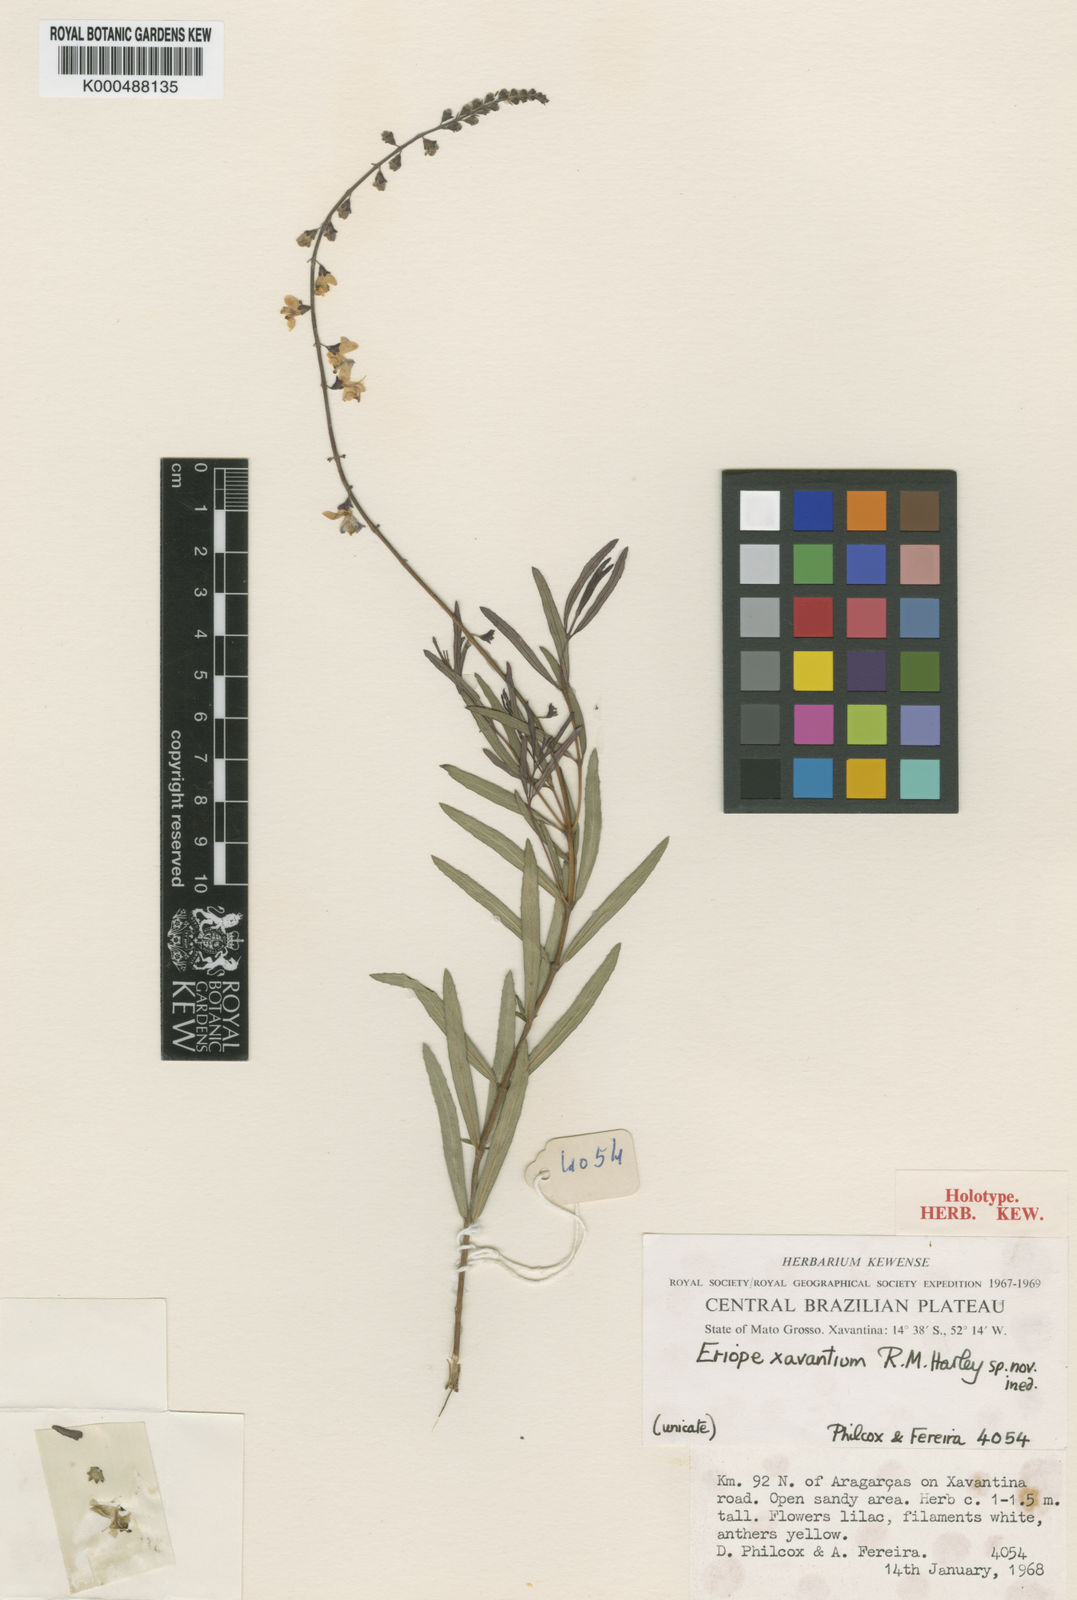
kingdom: Plantae
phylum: Tracheophyta
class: Magnoliopsida
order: Lamiales
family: Lamiaceae
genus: Eriope
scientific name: Eriope xavantium
